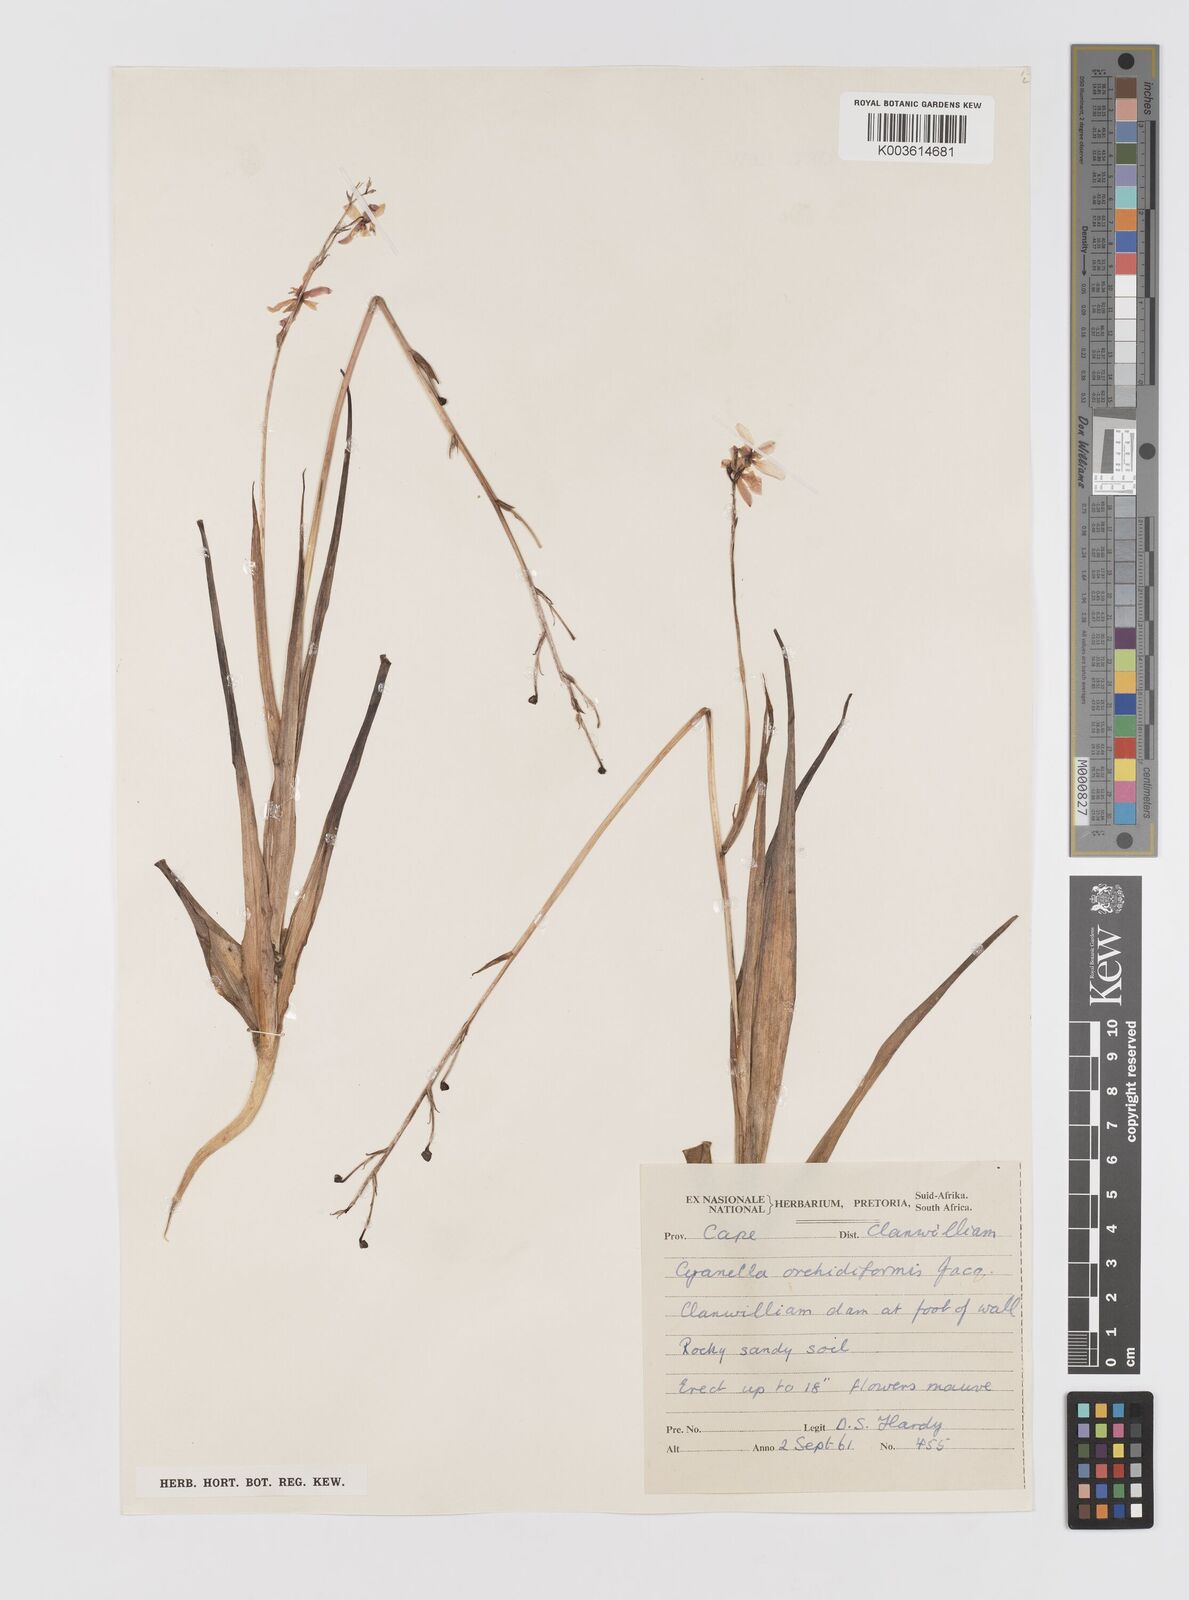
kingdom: Plantae
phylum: Tracheophyta
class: Liliopsida
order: Asparagales
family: Tecophilaeaceae
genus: Cyanella
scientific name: Cyanella orchidiformis
